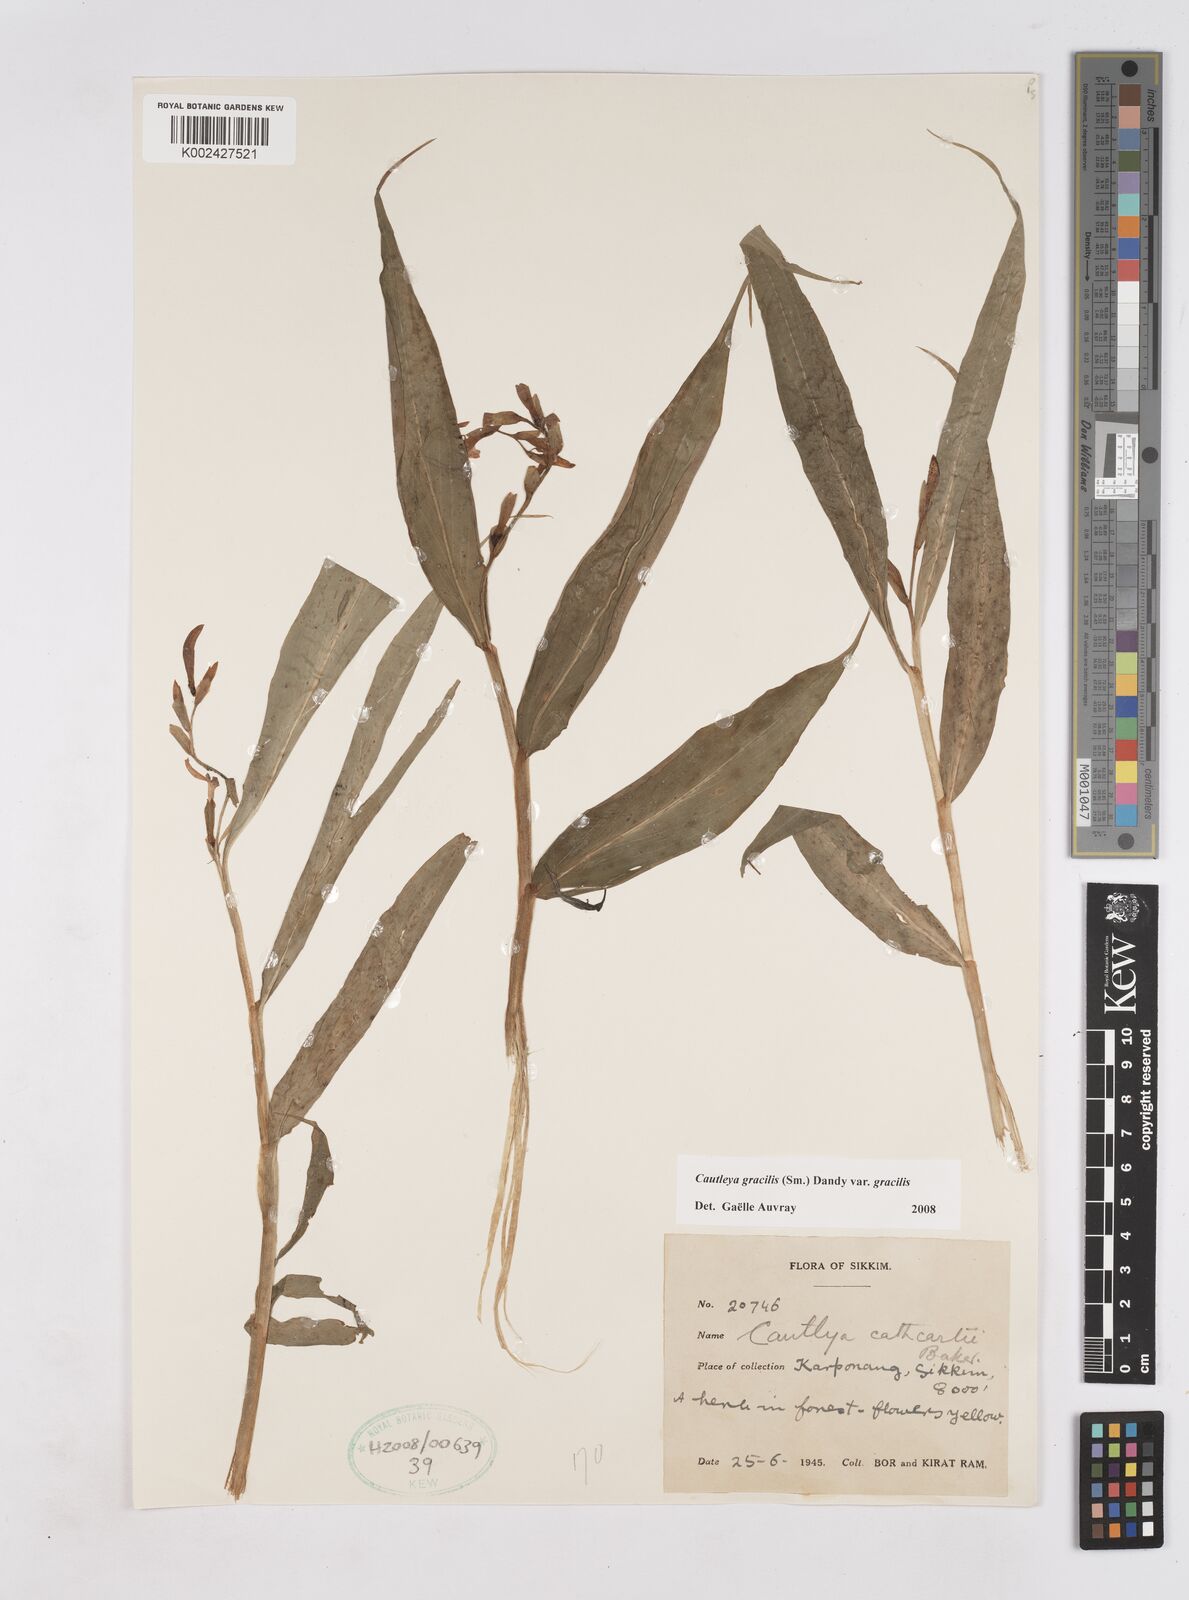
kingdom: Plantae
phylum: Tracheophyta
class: Liliopsida
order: Zingiberales
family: Zingiberaceae
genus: Cautleya
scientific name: Cautleya gracilis
